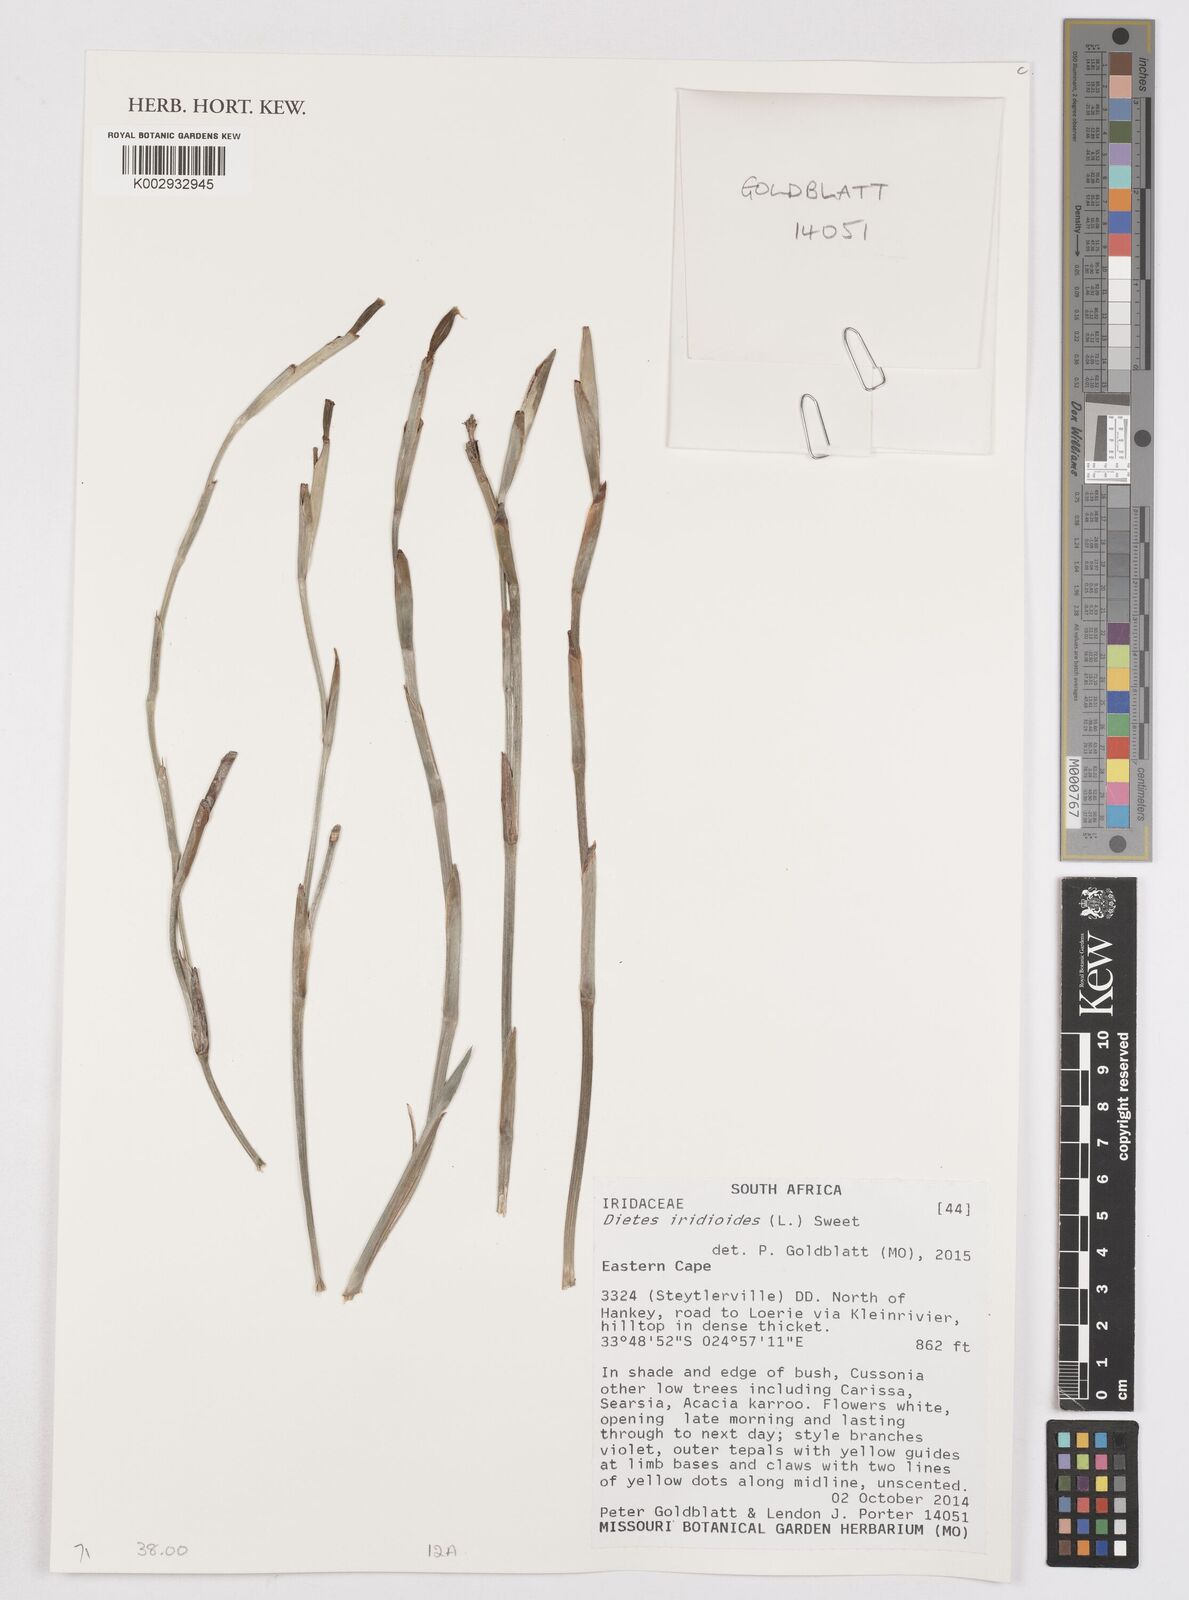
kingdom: Plantae
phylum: Tracheophyta
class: Liliopsida
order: Asparagales
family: Iridaceae
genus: Dietes
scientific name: Dietes iridioides
